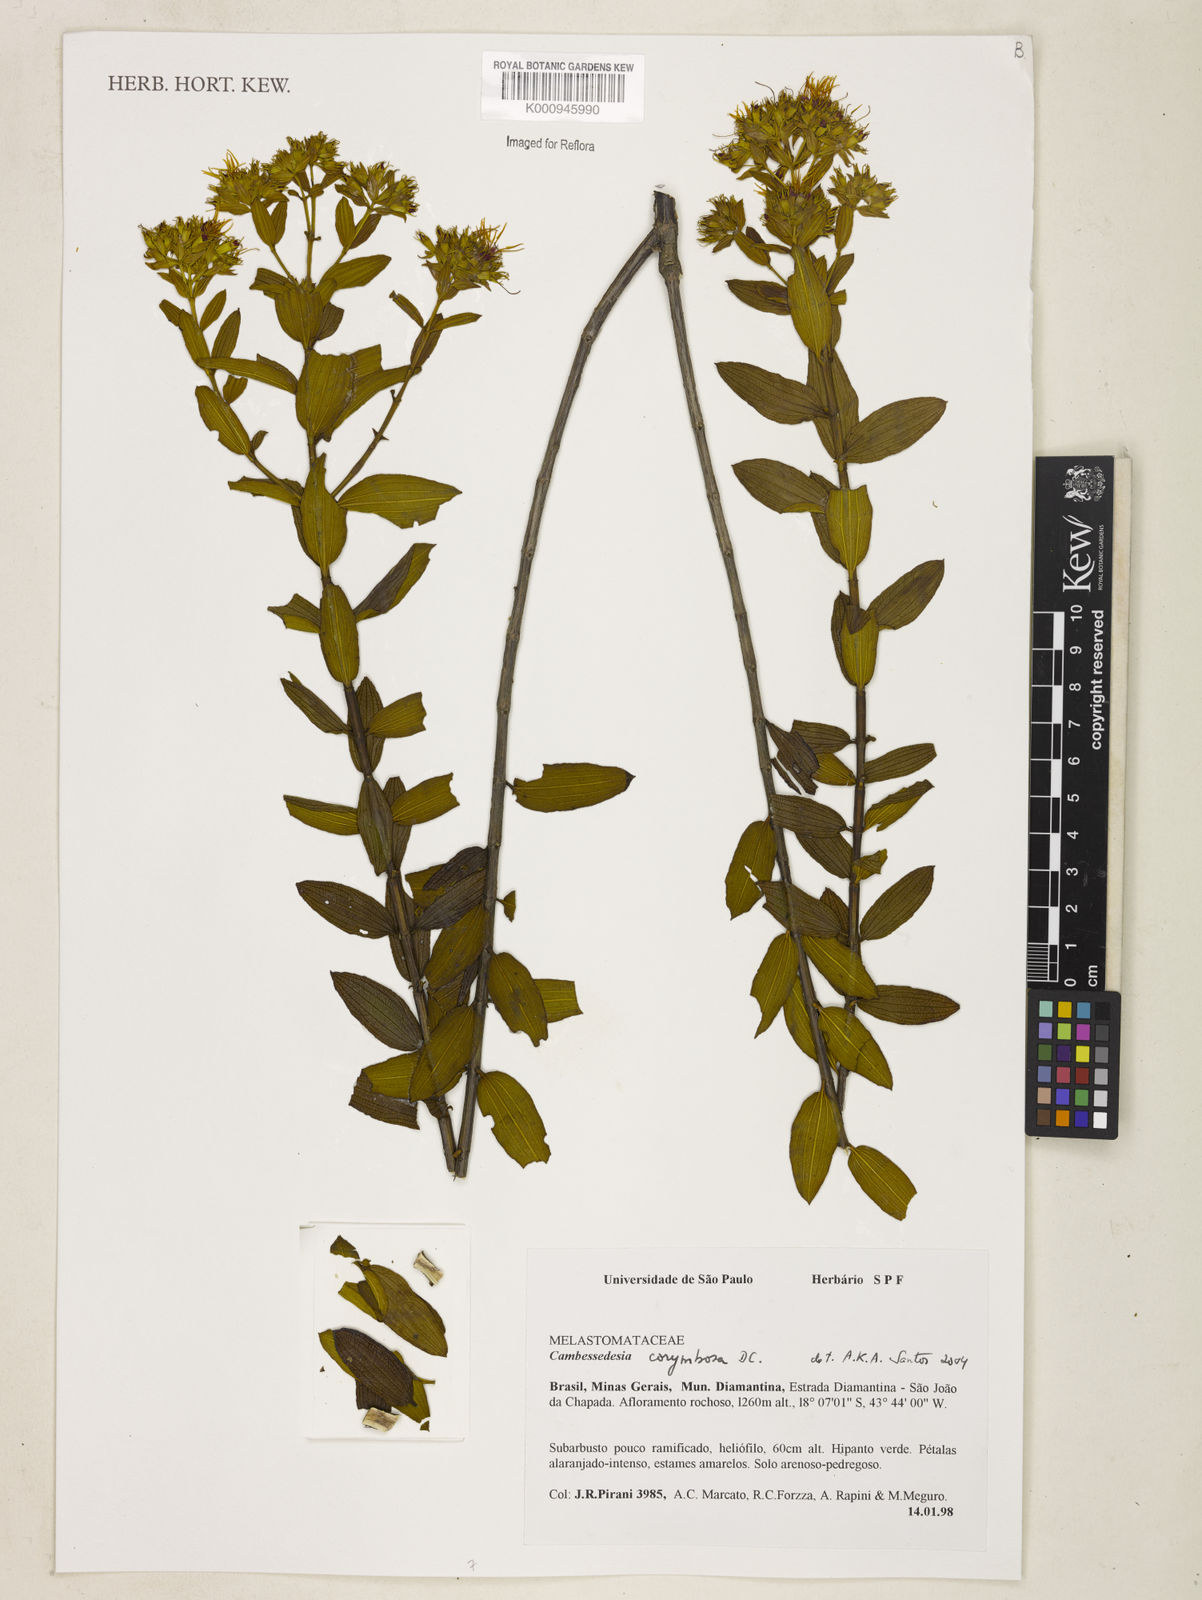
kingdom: Plantae
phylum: Tracheophyta
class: Magnoliopsida
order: Myrtales
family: Melastomataceae
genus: Cambessedesia
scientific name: Cambessedesia corymbosa
